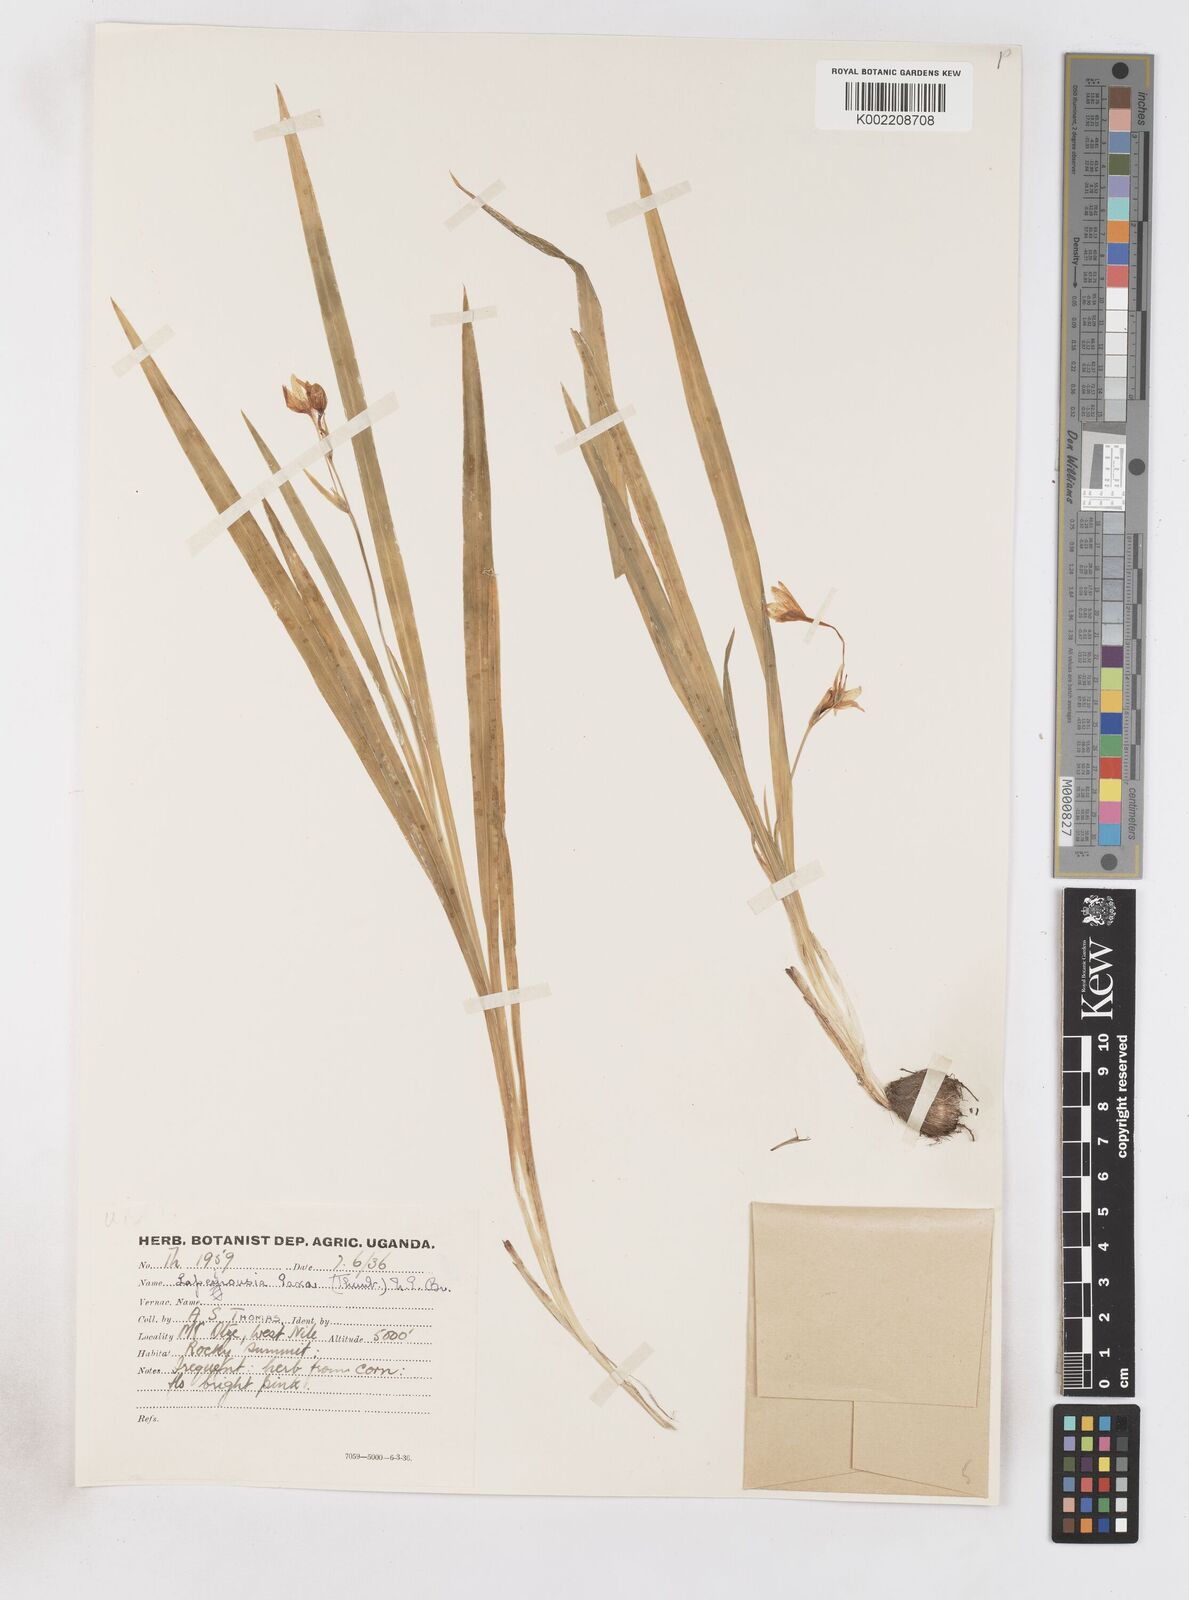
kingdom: Plantae
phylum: Tracheophyta
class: Liliopsida
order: Asparagales
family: Iridaceae
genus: Freesia
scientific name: Freesia laxa
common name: False freesia
